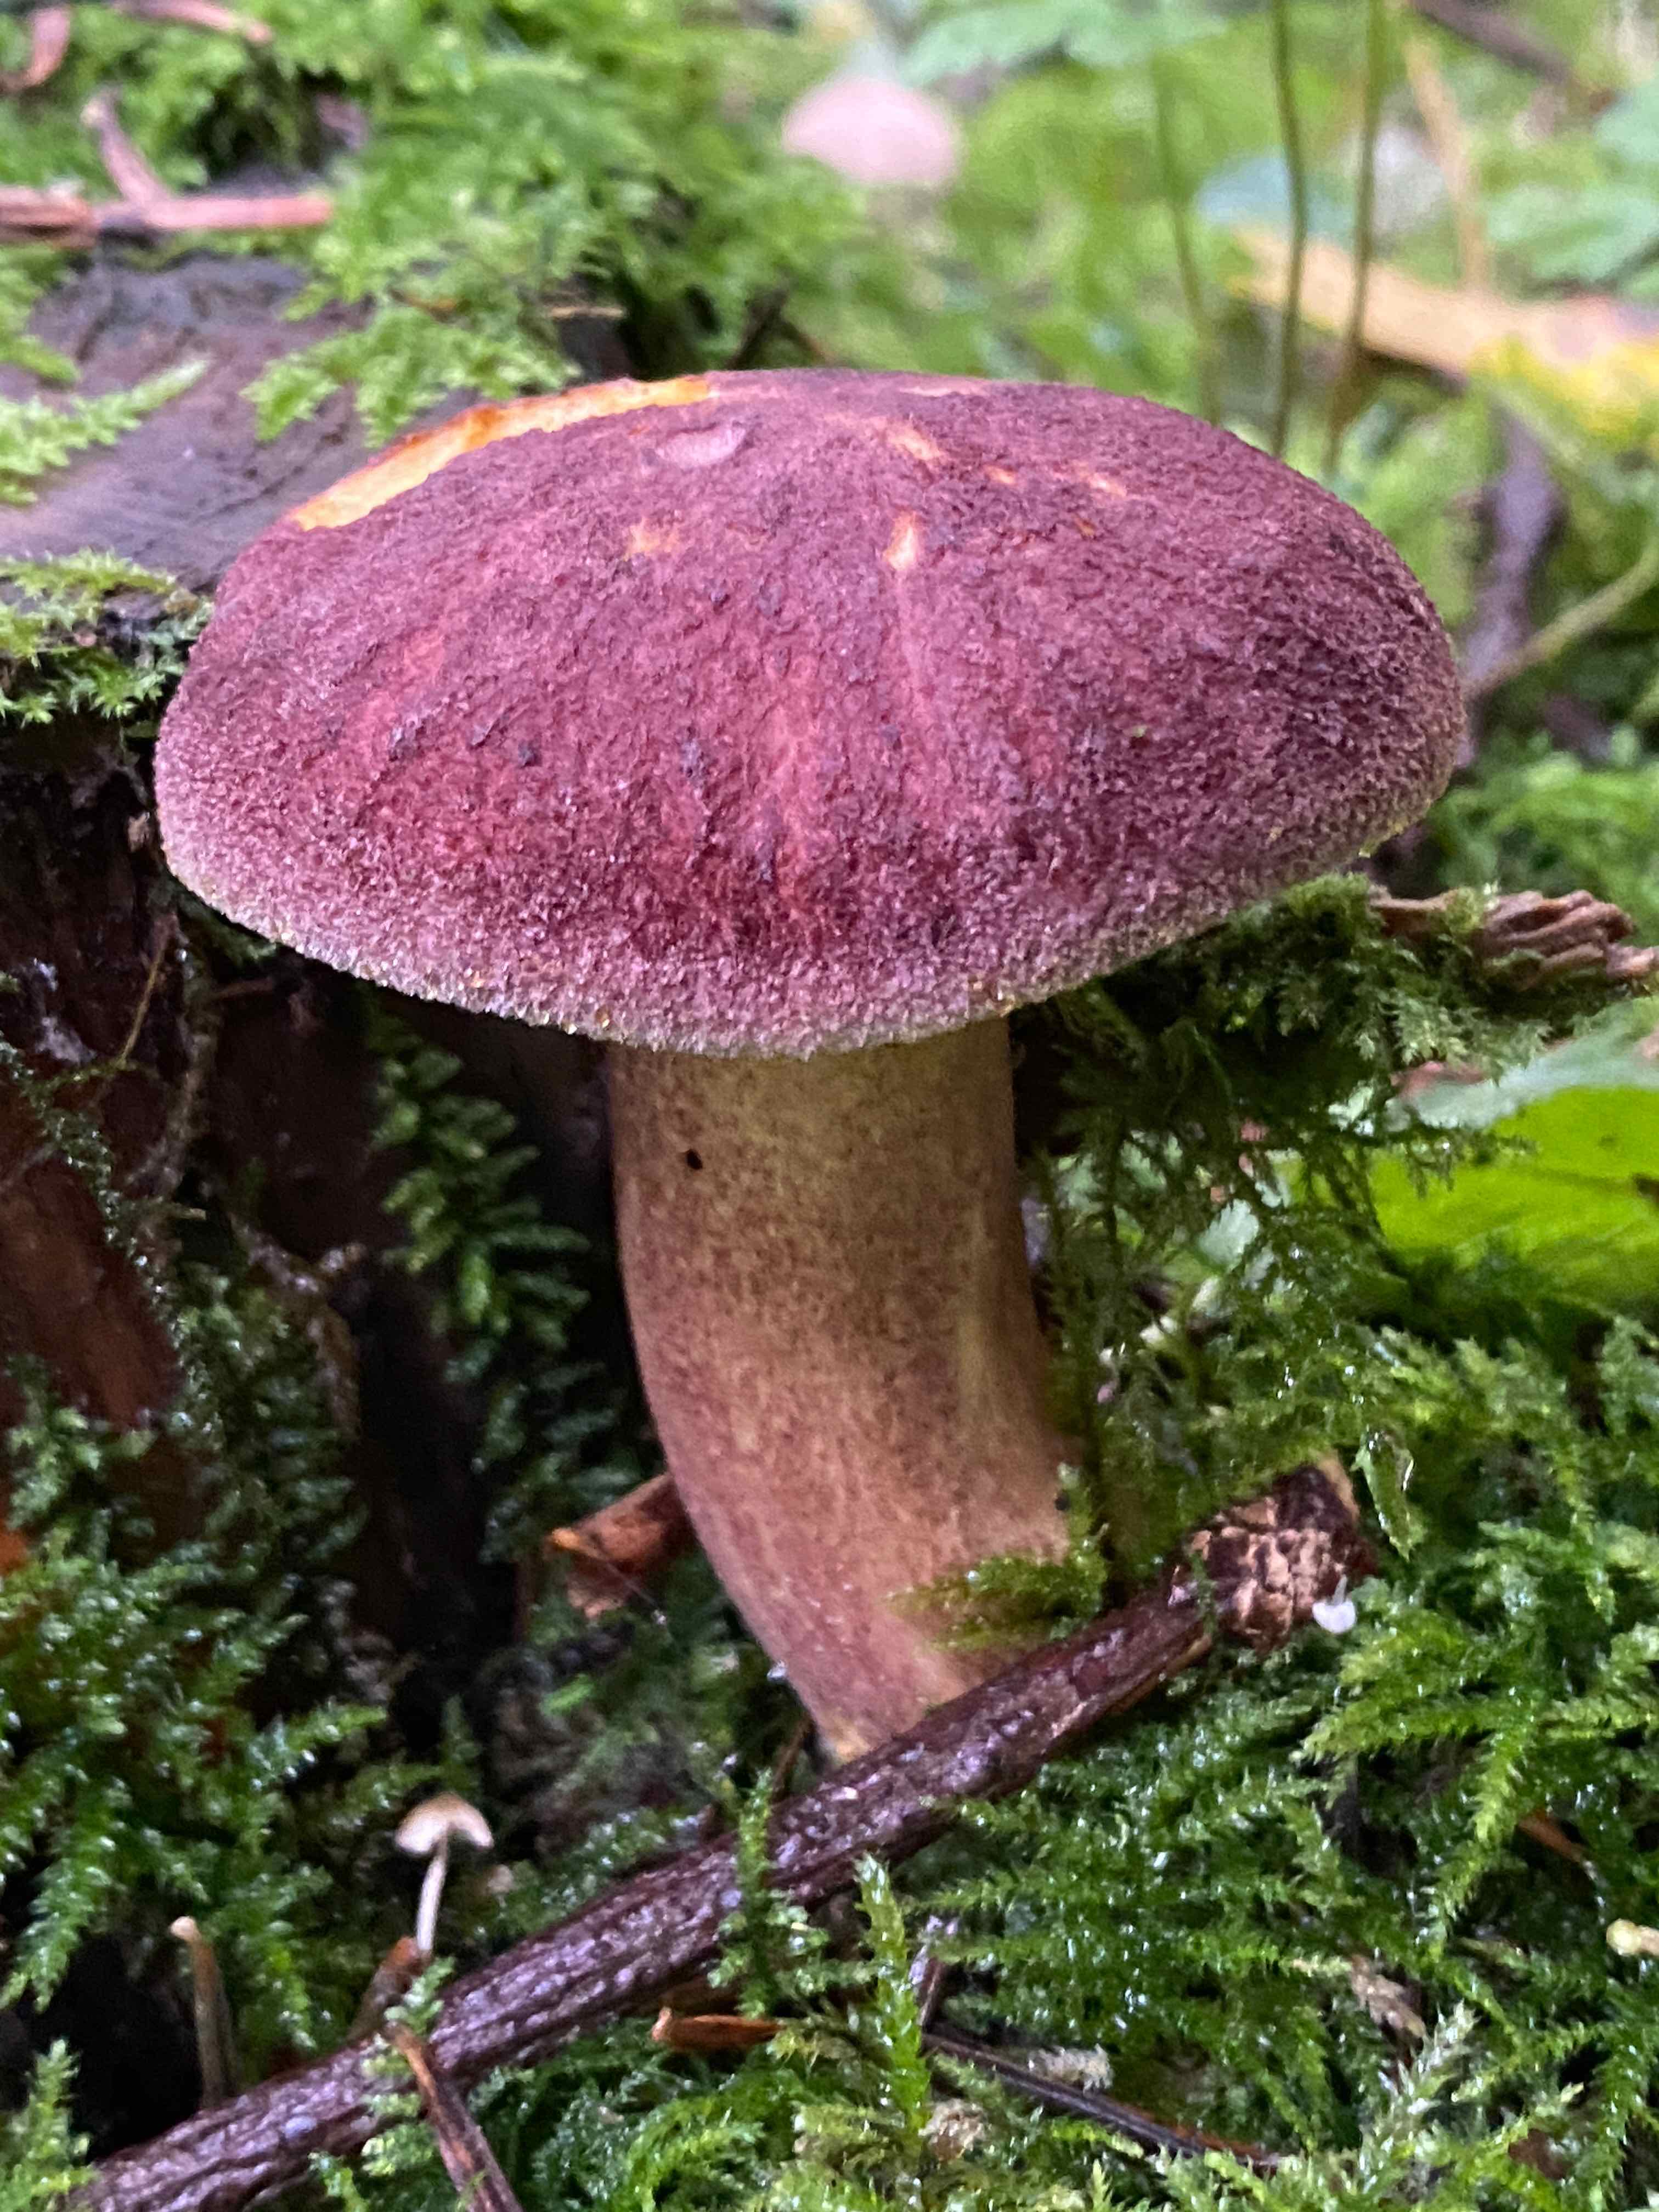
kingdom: Fungi
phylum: Basidiomycota
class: Agaricomycetes
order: Agaricales
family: Tricholomataceae
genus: Tricholomopsis
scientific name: Tricholomopsis rutilans
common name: purpur-væbnerhat
